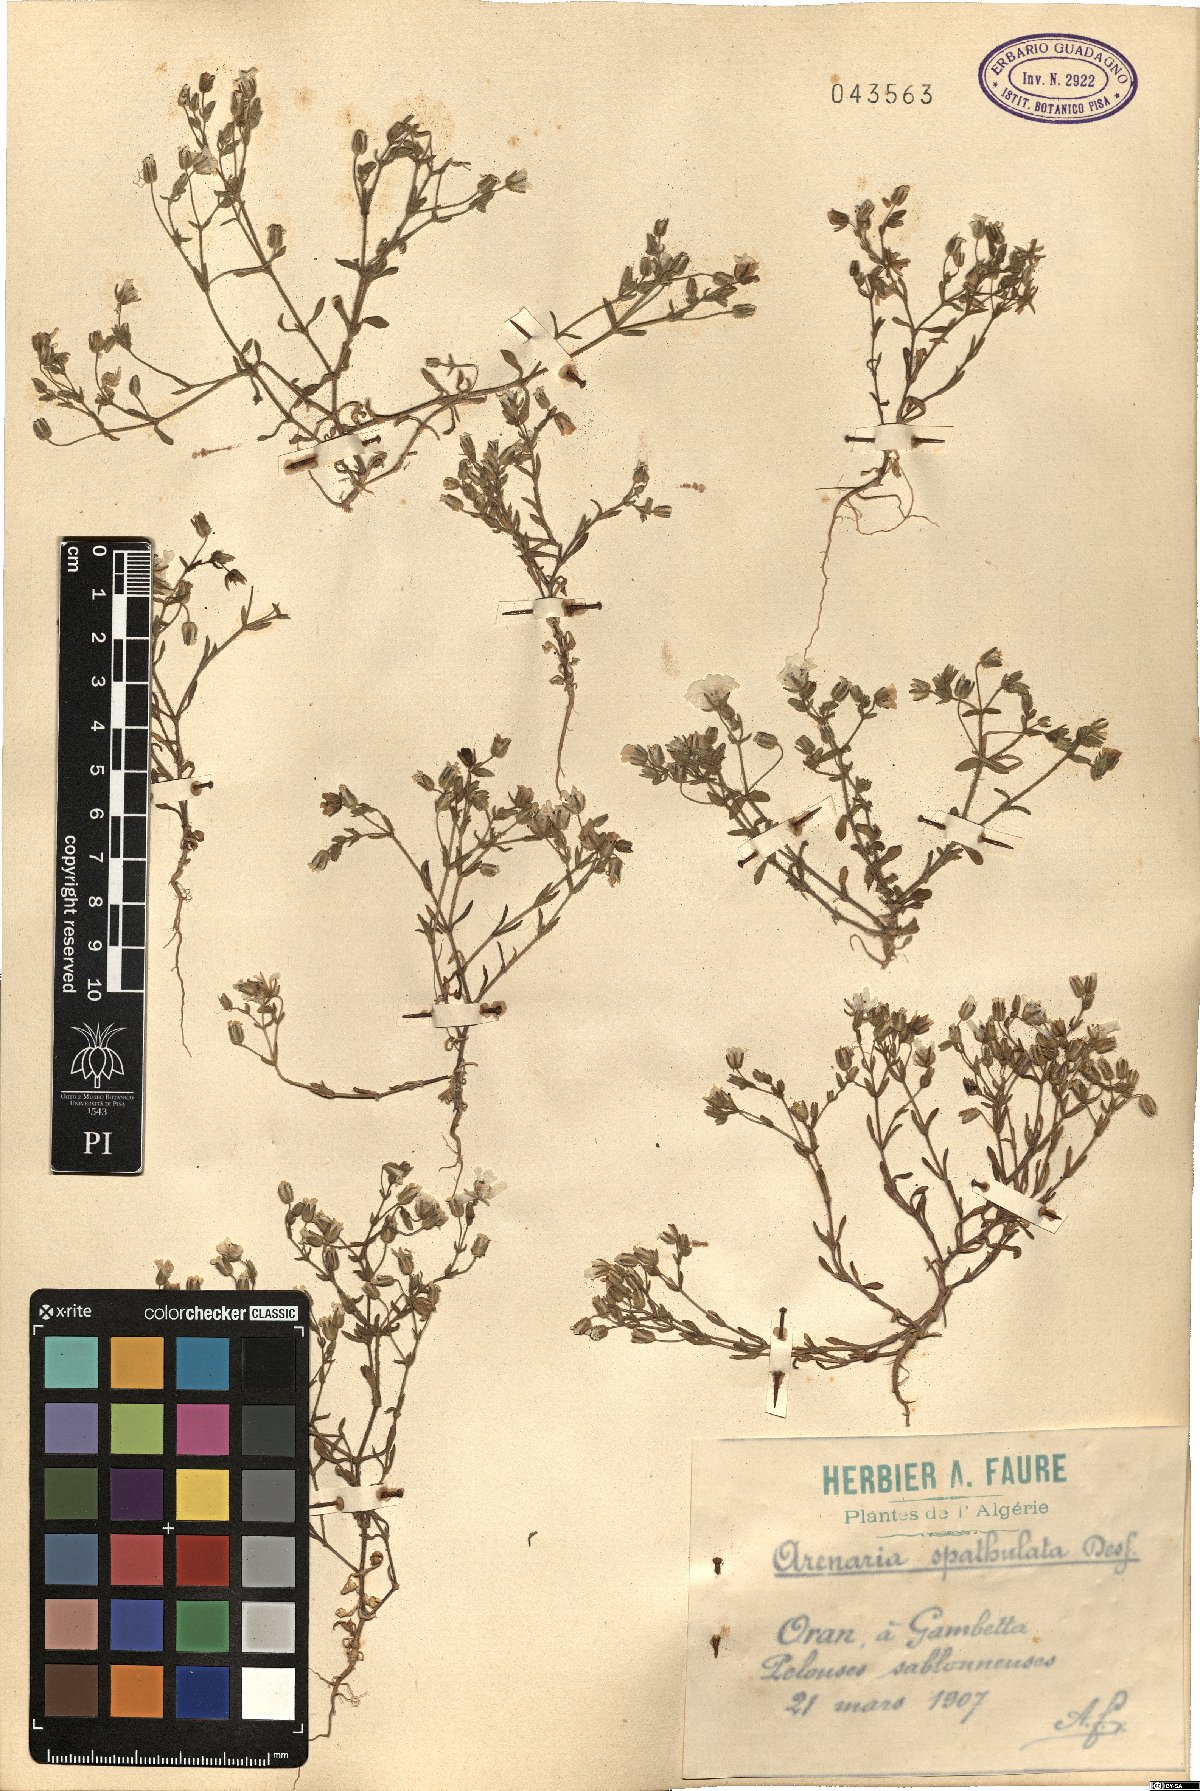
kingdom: Plantae
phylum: Tracheophyta
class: Magnoliopsida
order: Caryophyllales
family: Caryophyllaceae
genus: Arenaria
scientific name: Arenaria cerastioides
